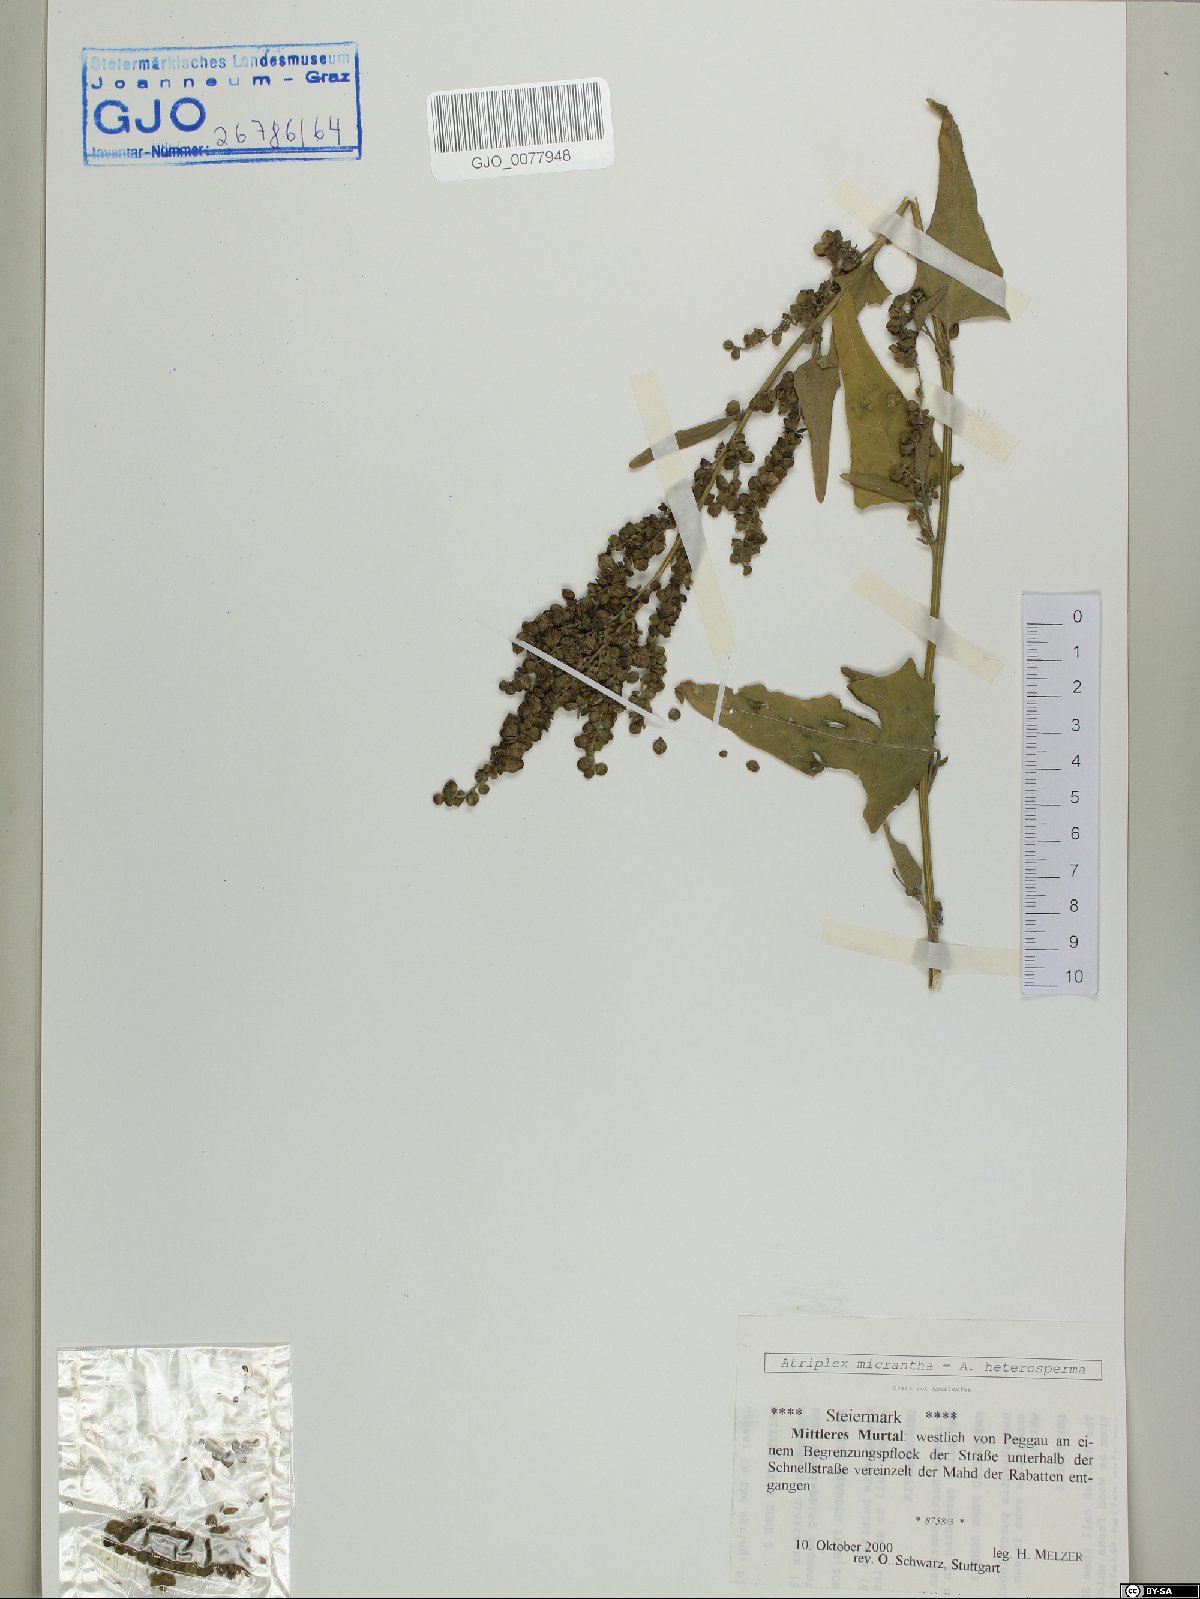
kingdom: Plantae
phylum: Tracheophyta
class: Magnoliopsida
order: Caryophyllales
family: Amaranthaceae
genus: Atriplex
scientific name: Atriplex micrantha
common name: Twoscale saltbush
